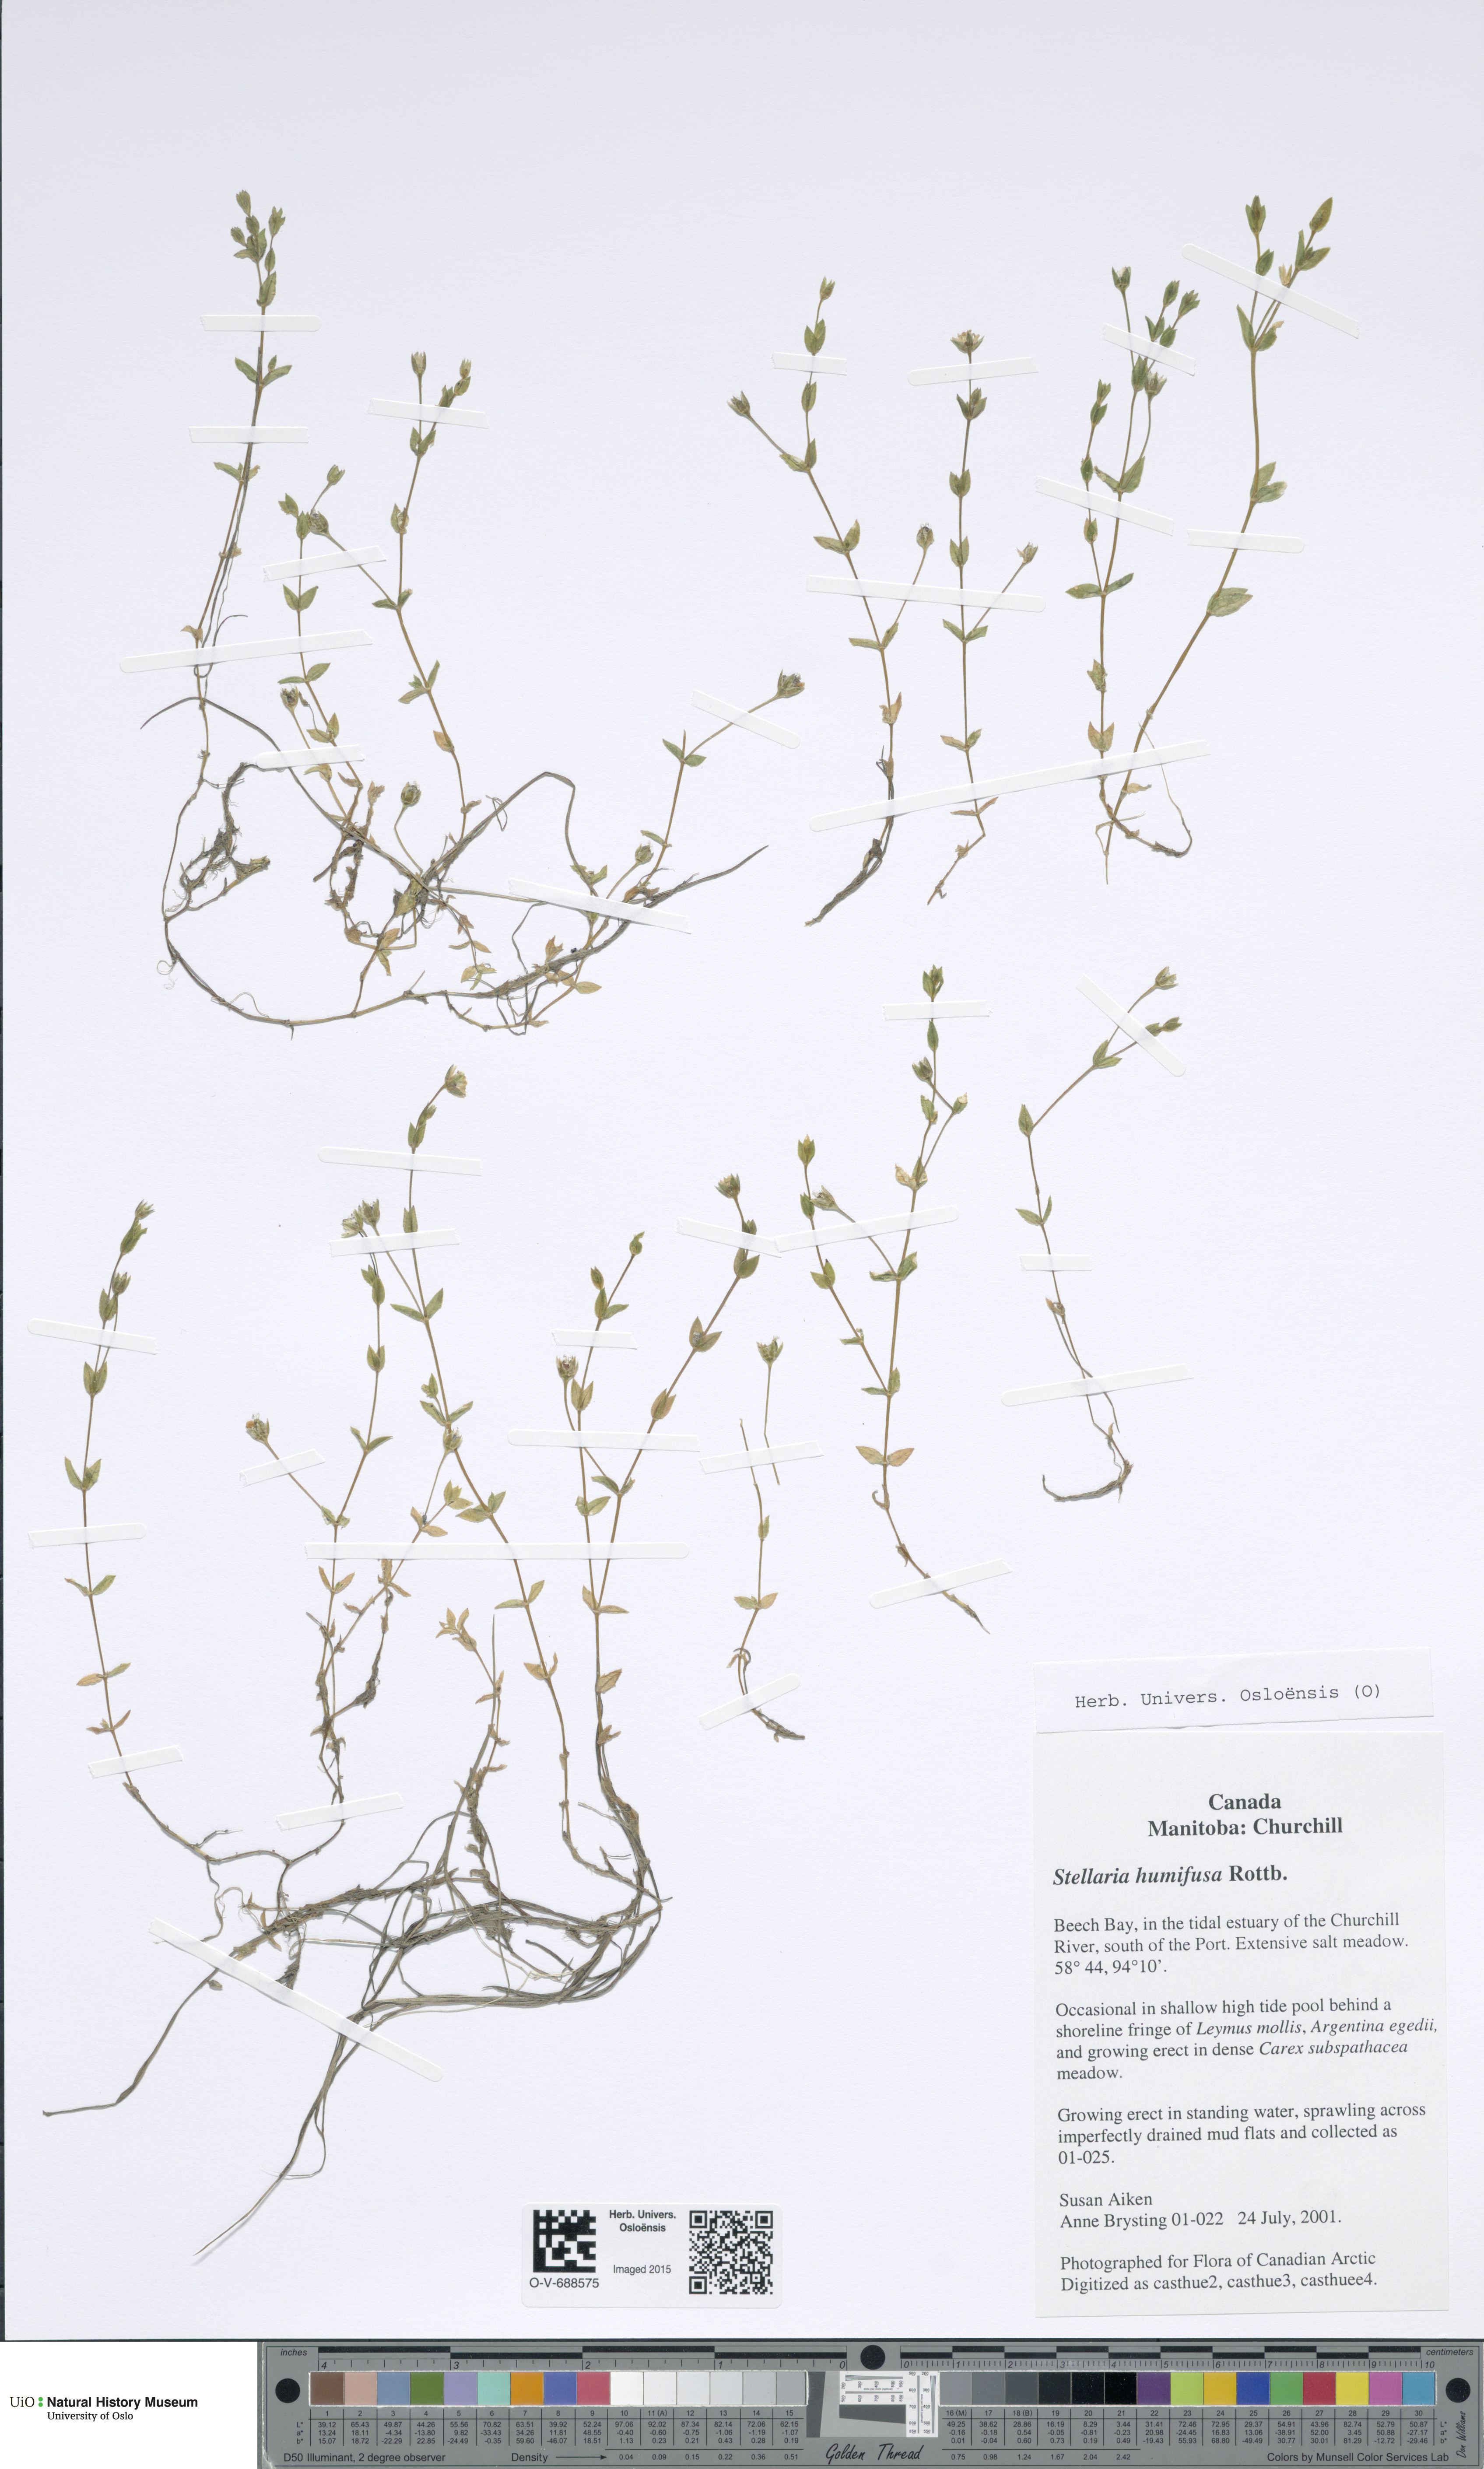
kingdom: Plantae
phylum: Tracheophyta
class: Magnoliopsida
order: Caryophyllales
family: Caryophyllaceae
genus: Stellaria
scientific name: Stellaria humifusa
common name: Creeping starwort
